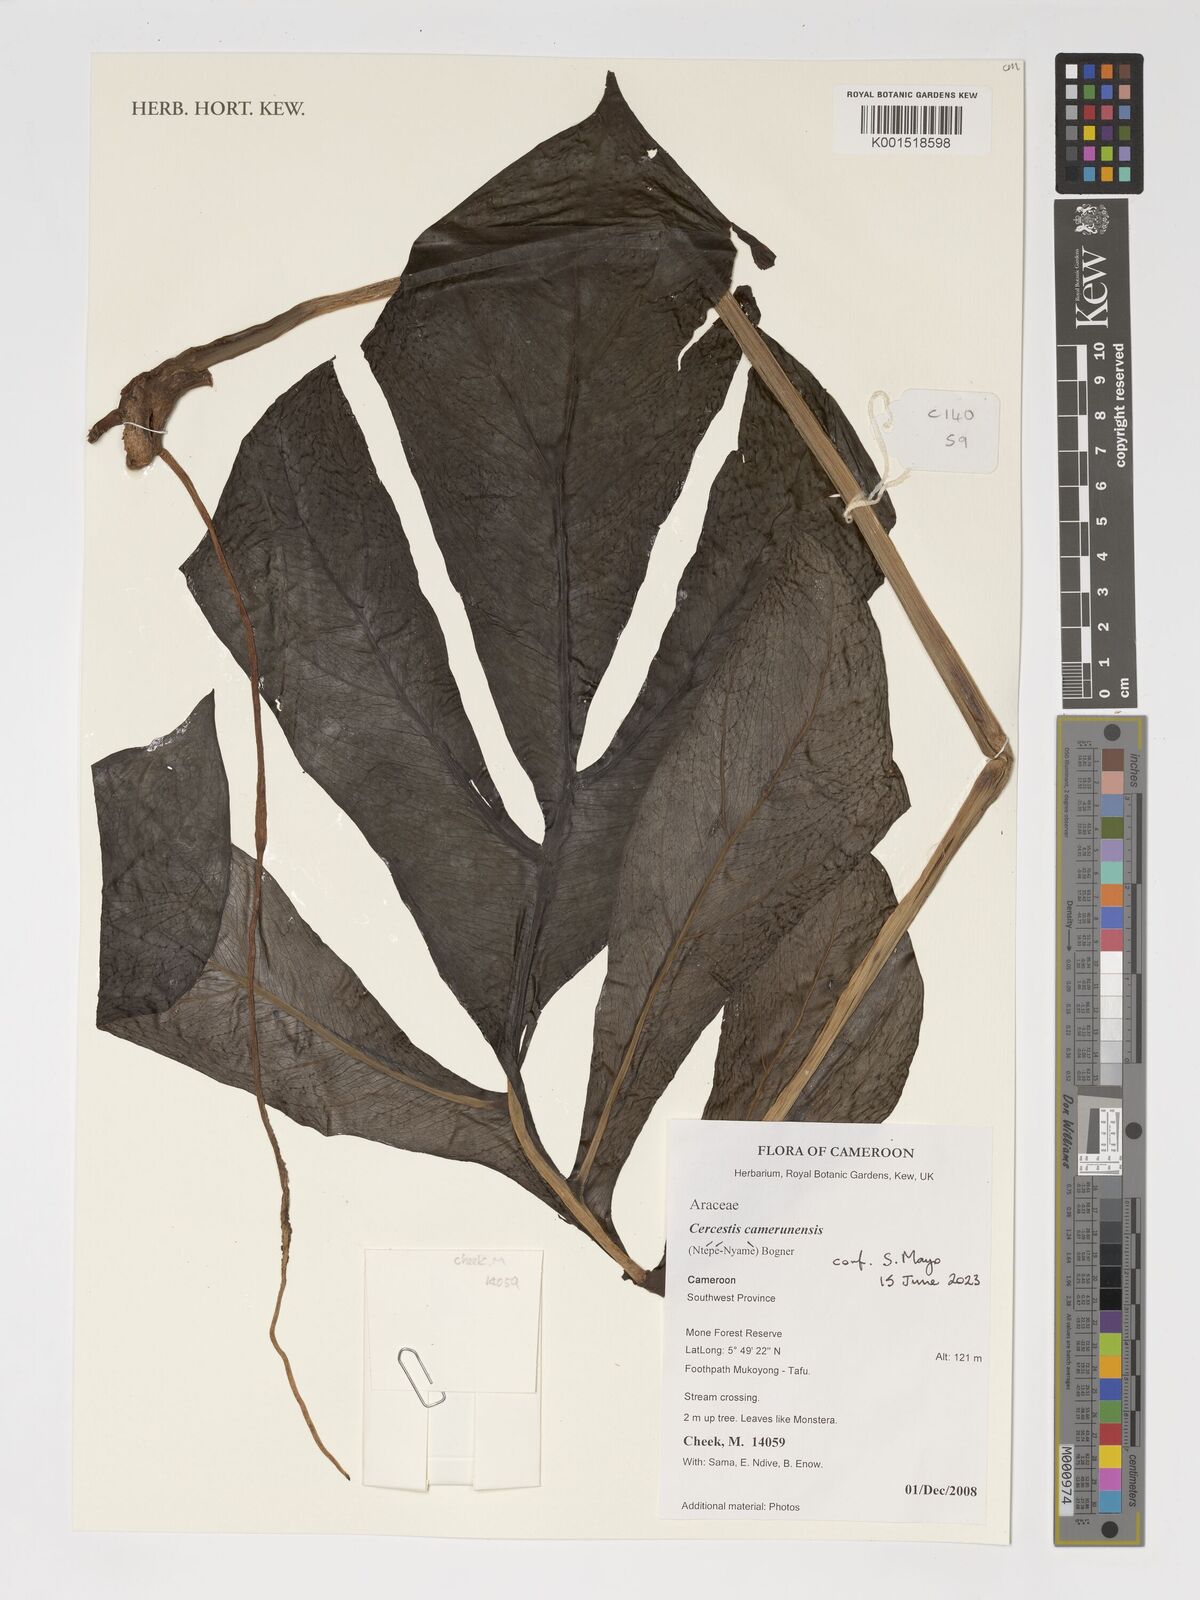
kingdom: Plantae
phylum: Tracheophyta
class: Liliopsida
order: Alismatales
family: Araceae
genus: Cercestis
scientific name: Cercestis camerunensis
